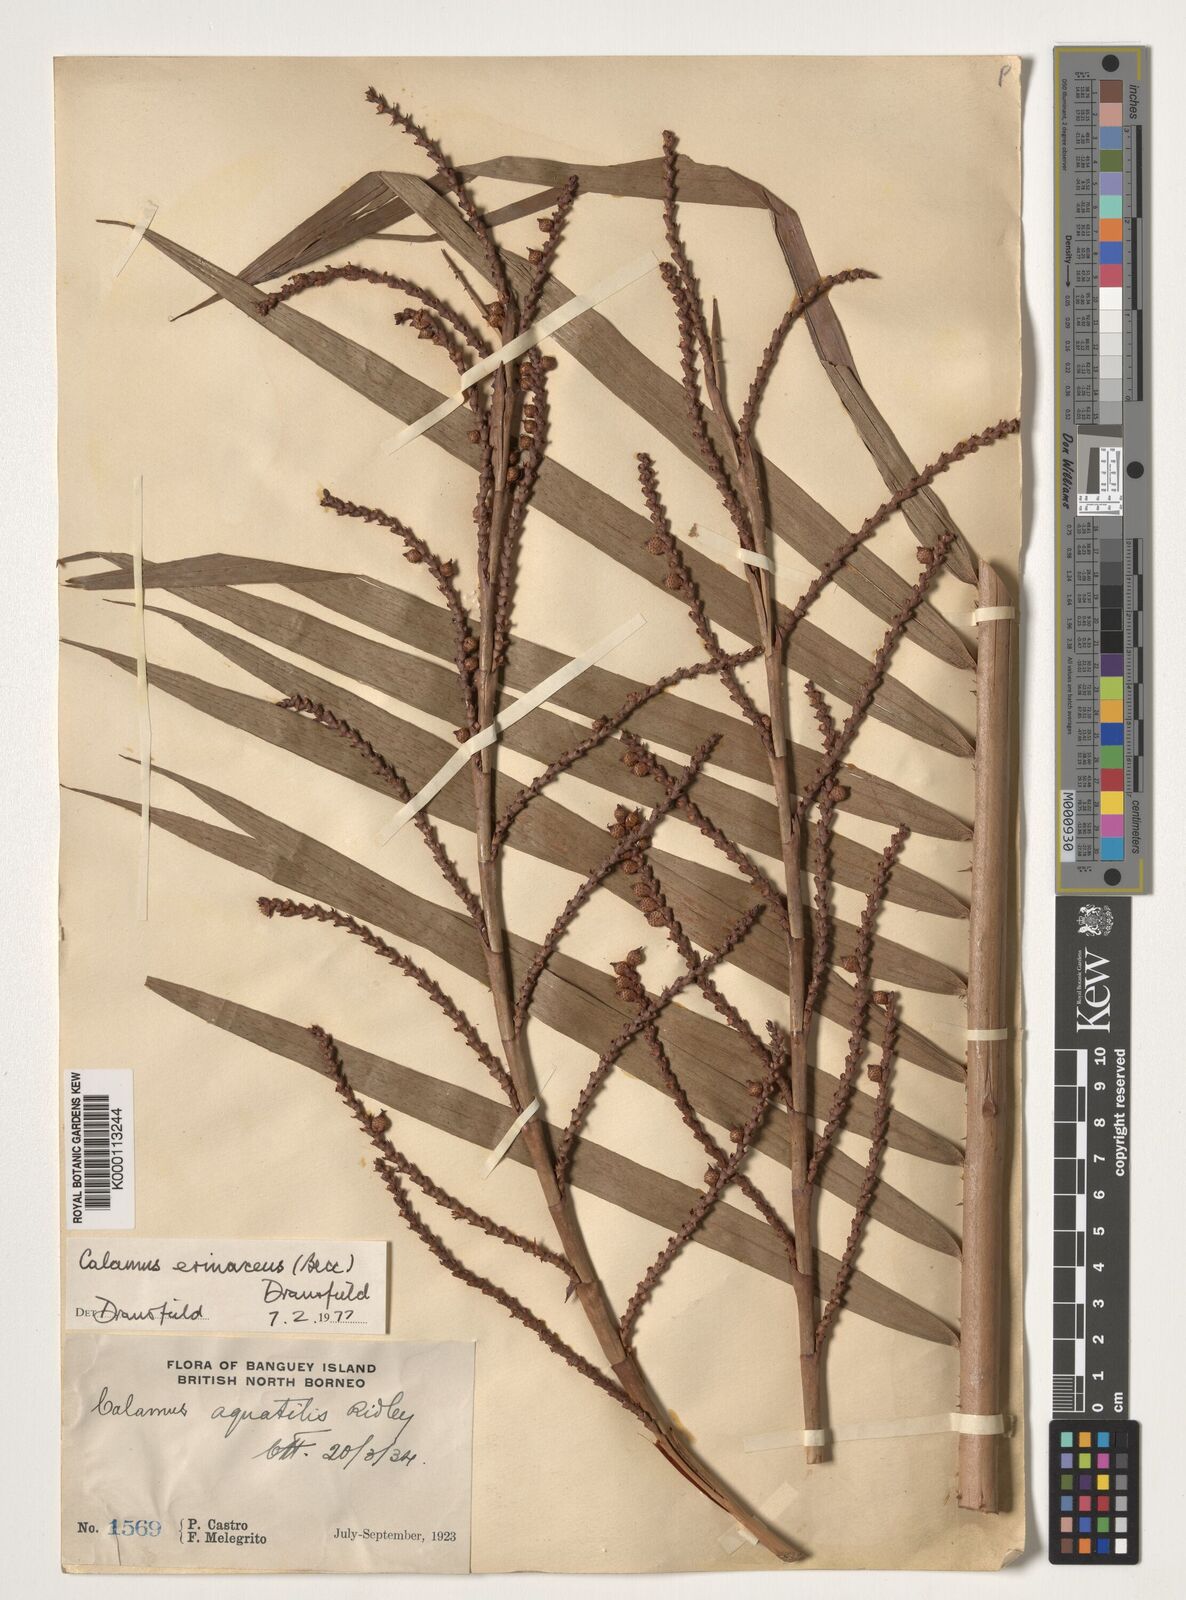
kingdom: Plantae
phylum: Tracheophyta
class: Liliopsida
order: Arecales
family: Arecaceae
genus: Calamus
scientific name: Calamus
